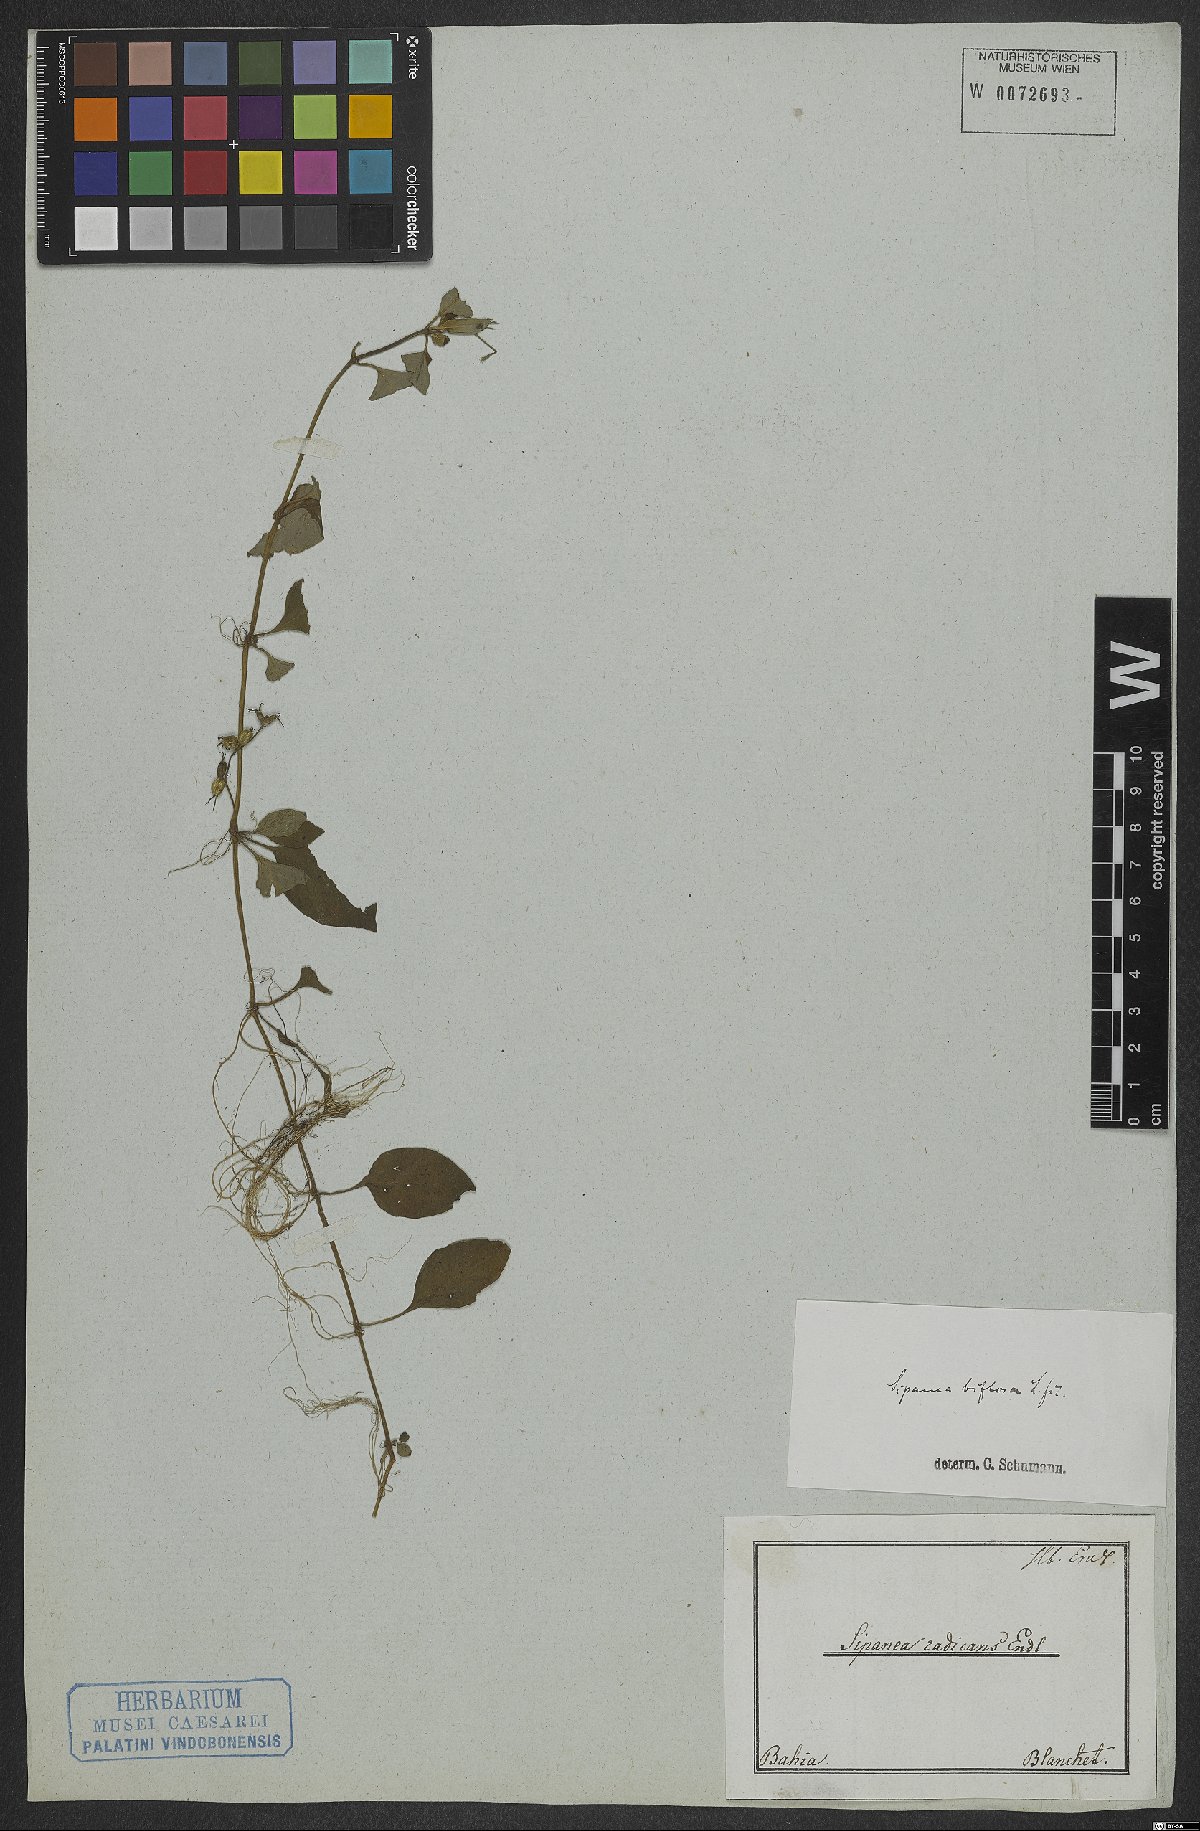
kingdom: Plantae
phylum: Tracheophyta
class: Magnoliopsida
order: Gentianales
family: Rubiaceae
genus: Sipanea
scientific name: Sipanea biflora
